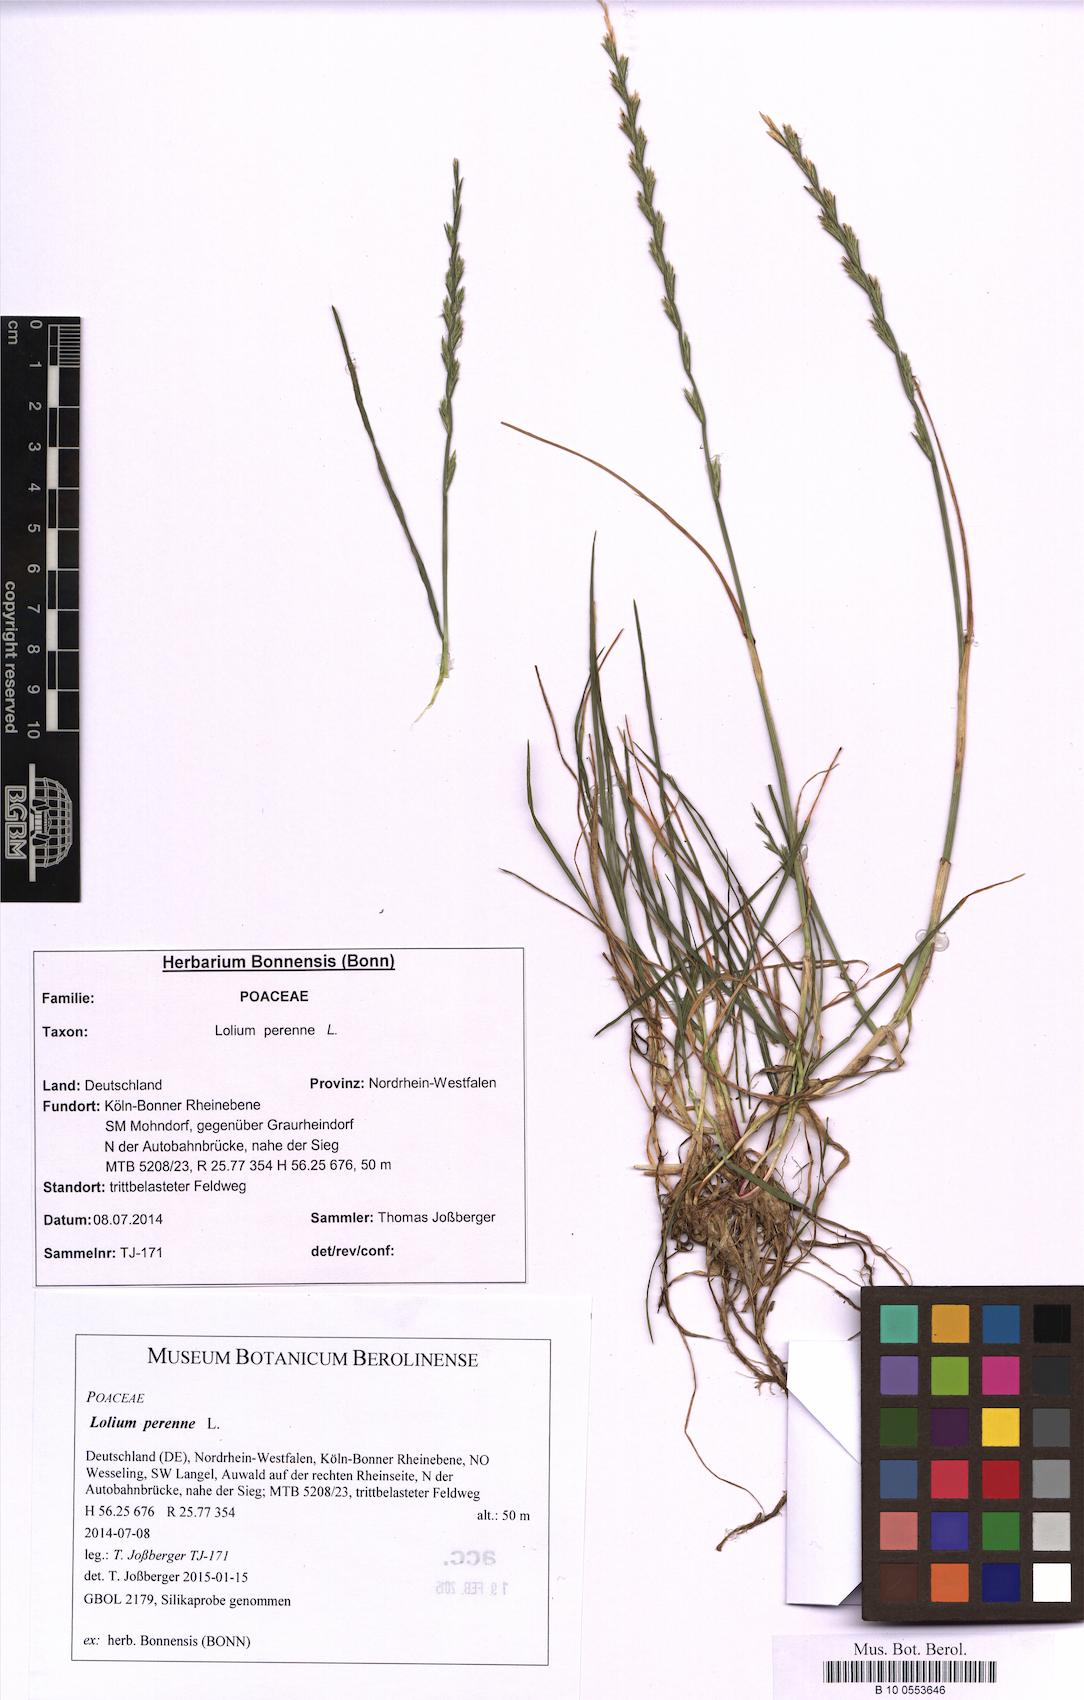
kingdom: Plantae
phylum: Tracheophyta
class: Liliopsida
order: Poales
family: Poaceae
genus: Lolium
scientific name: Lolium perenne
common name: Perennial ryegrass
